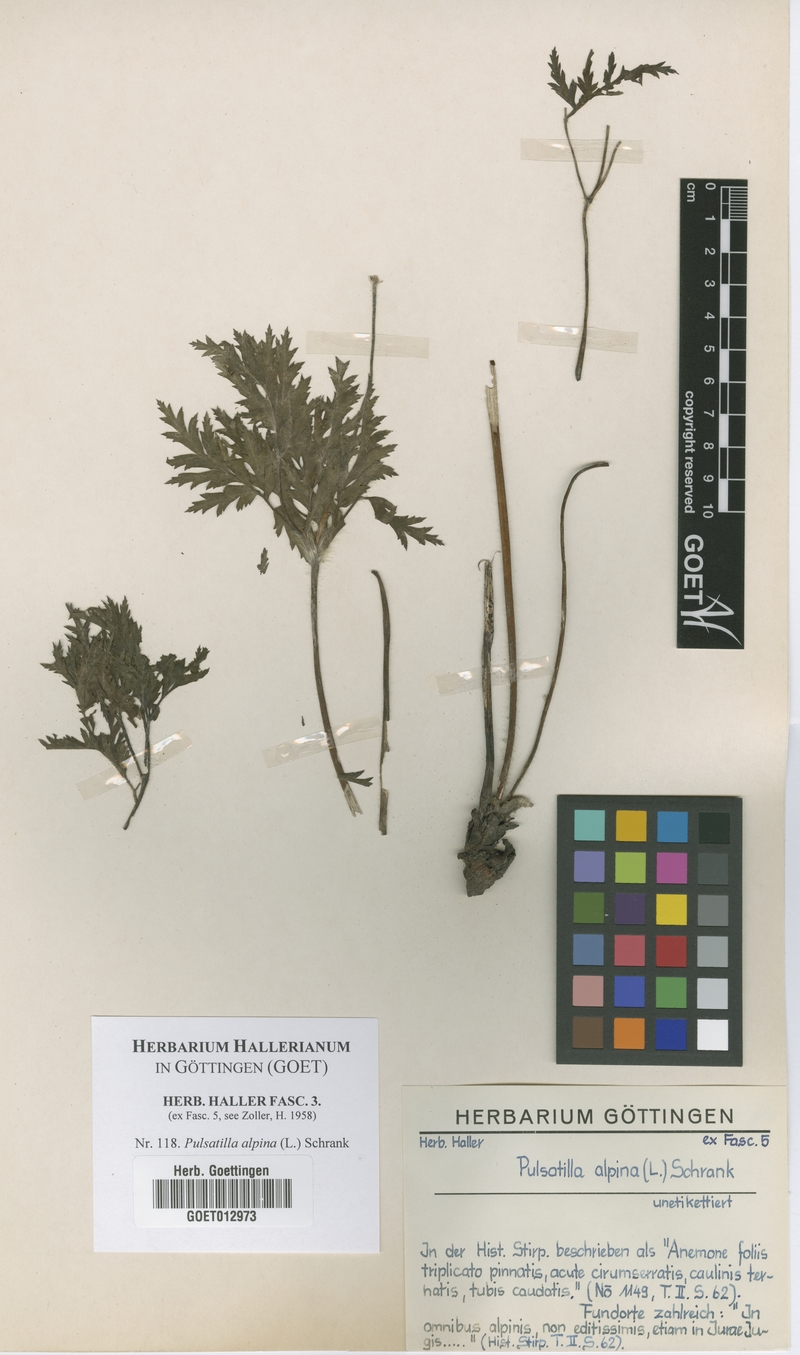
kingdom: Plantae
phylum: Tracheophyta
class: Magnoliopsida
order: Ranunculales
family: Ranunculaceae
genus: Pulsatilla
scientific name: Pulsatilla alpina
